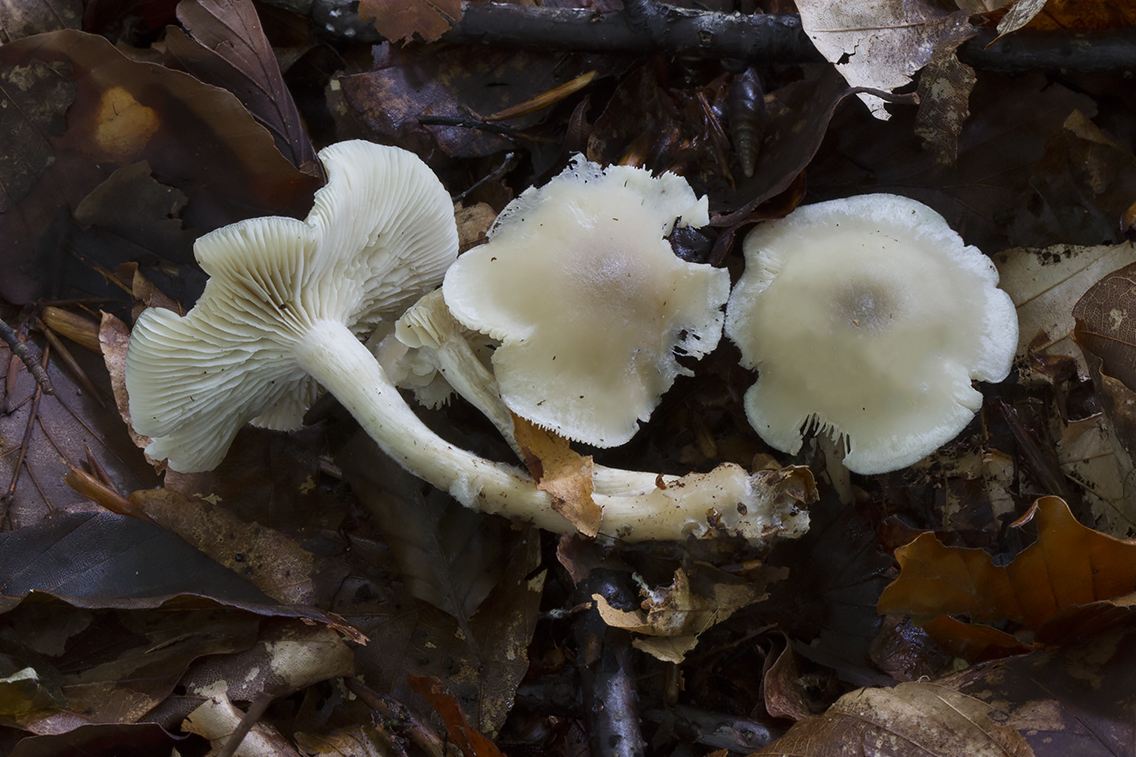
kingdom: Fungi
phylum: Basidiomycota
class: Agaricomycetes
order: Agaricales
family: Tricholomataceae
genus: Clitocybe
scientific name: Clitocybe odora
